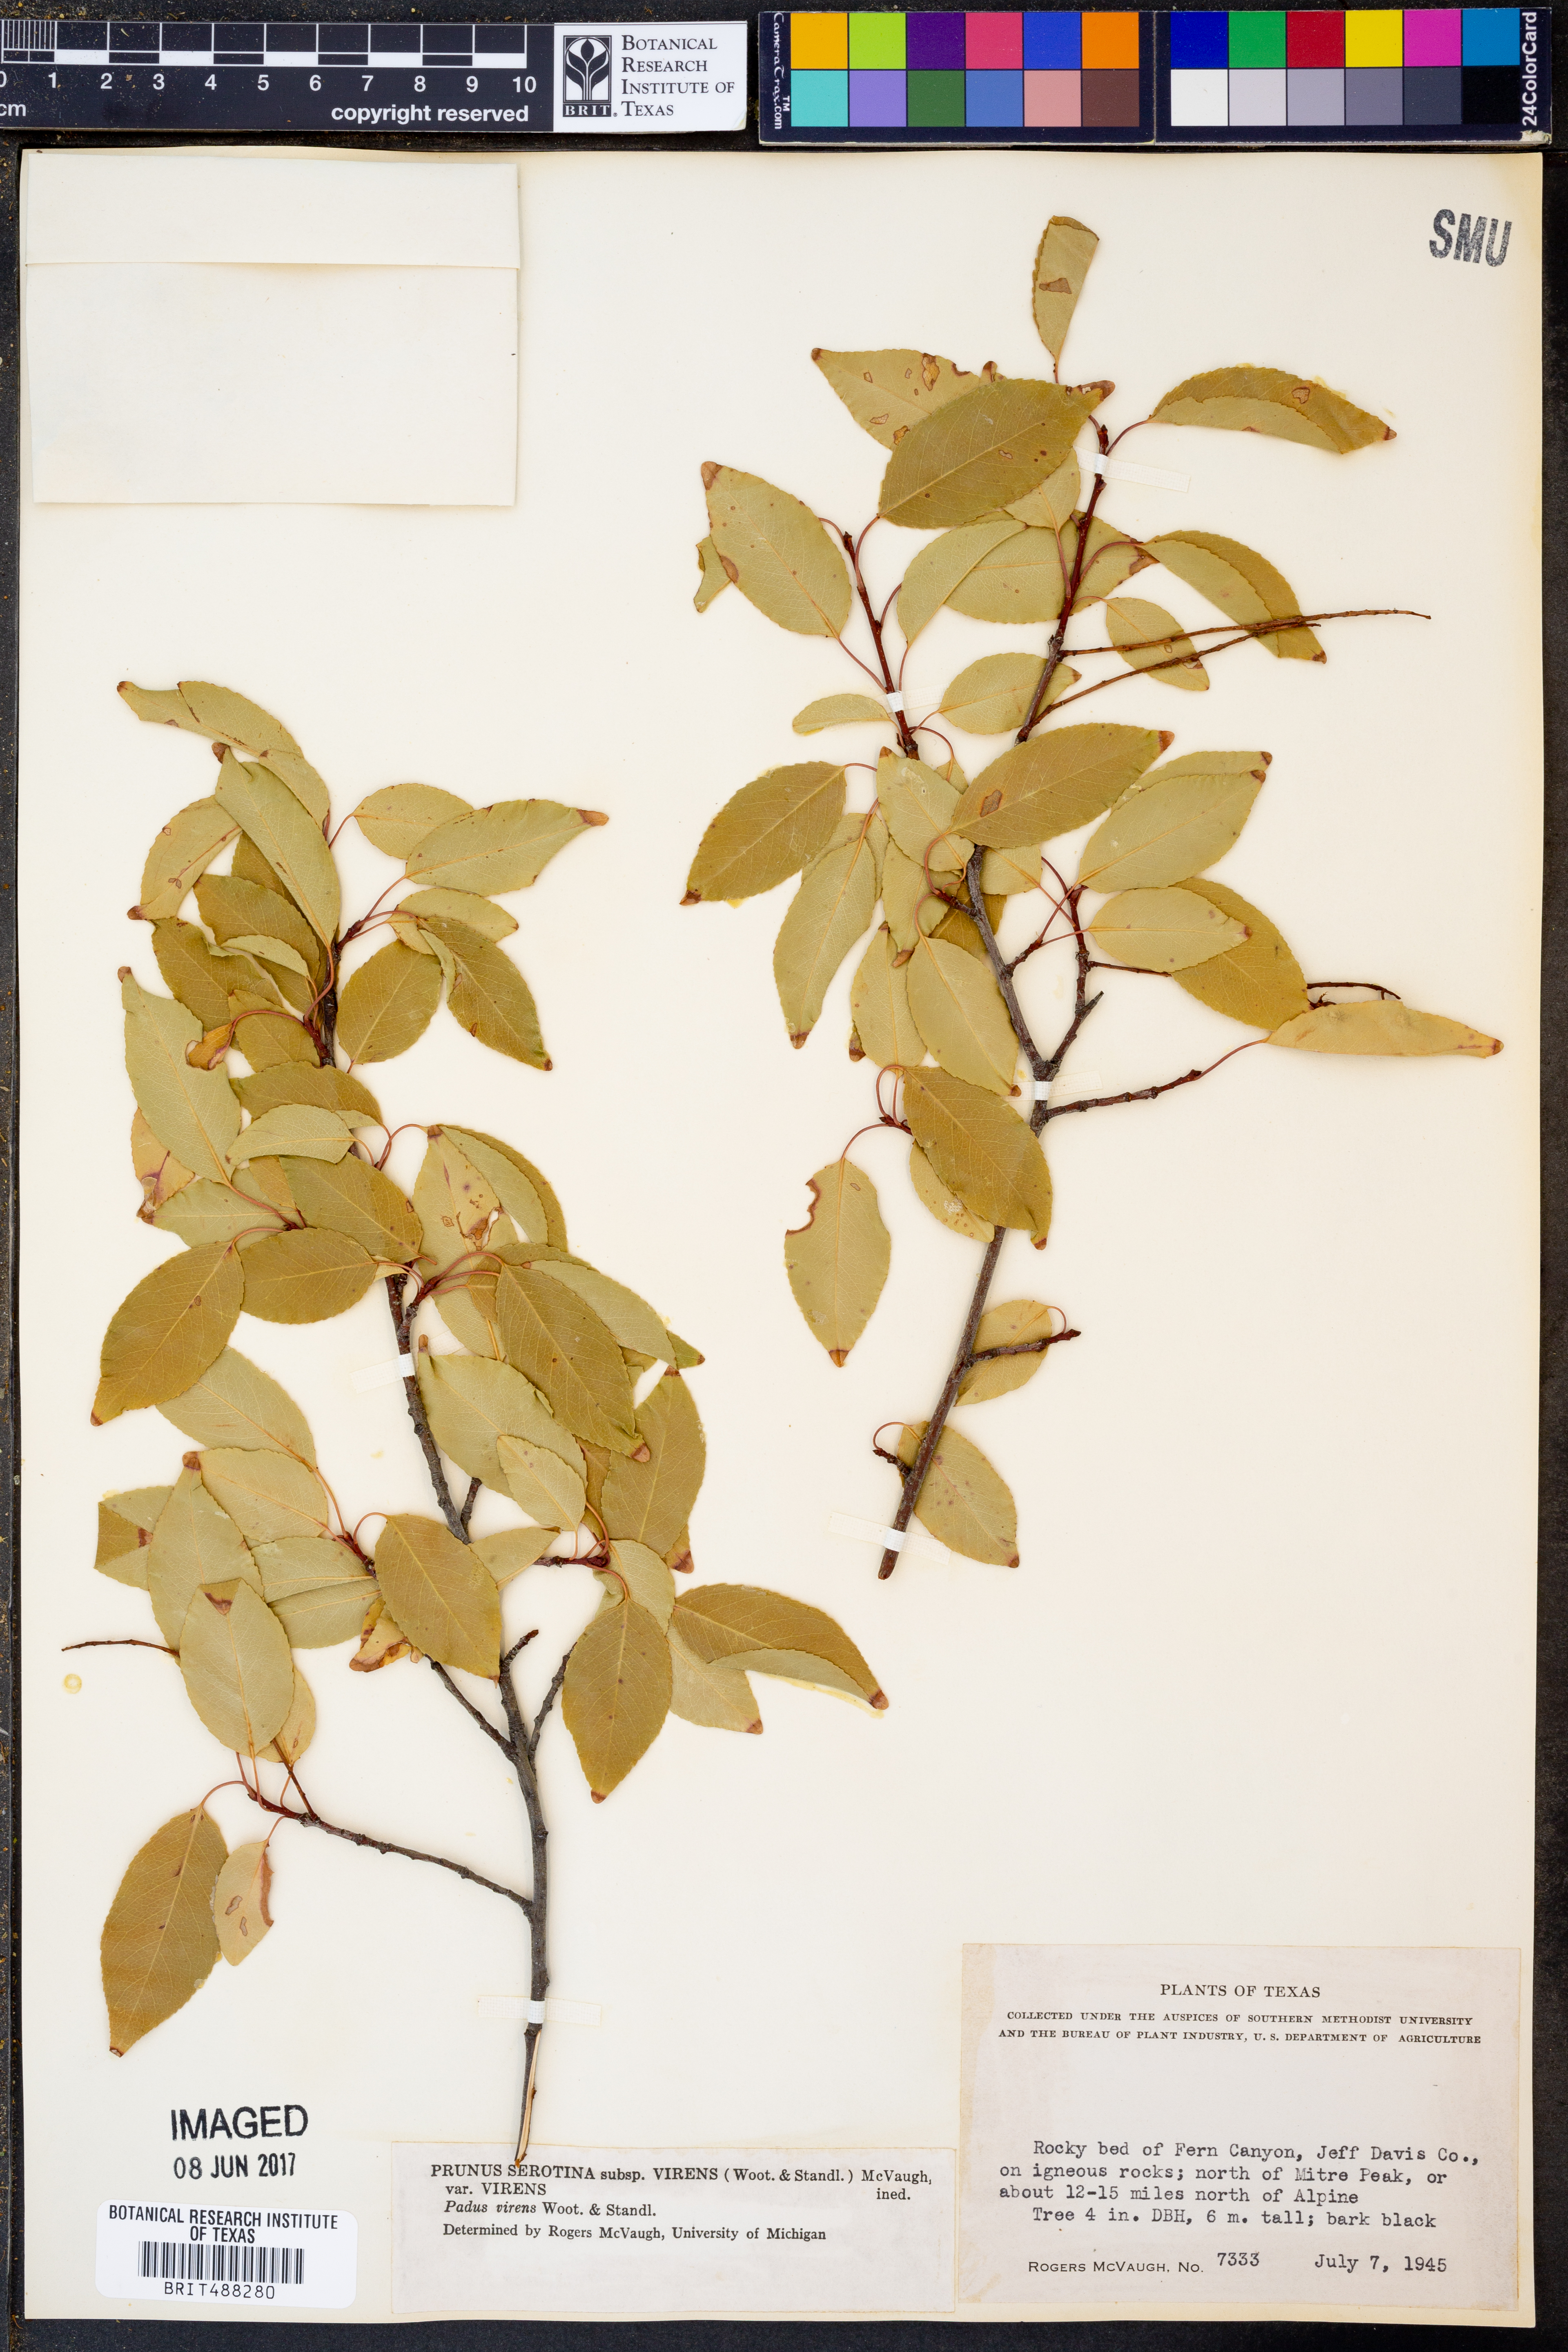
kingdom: Plantae
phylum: Tracheophyta
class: Magnoliopsida
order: Rosales
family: Rosaceae
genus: Prunus
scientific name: Prunus serotina
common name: Black cherry
